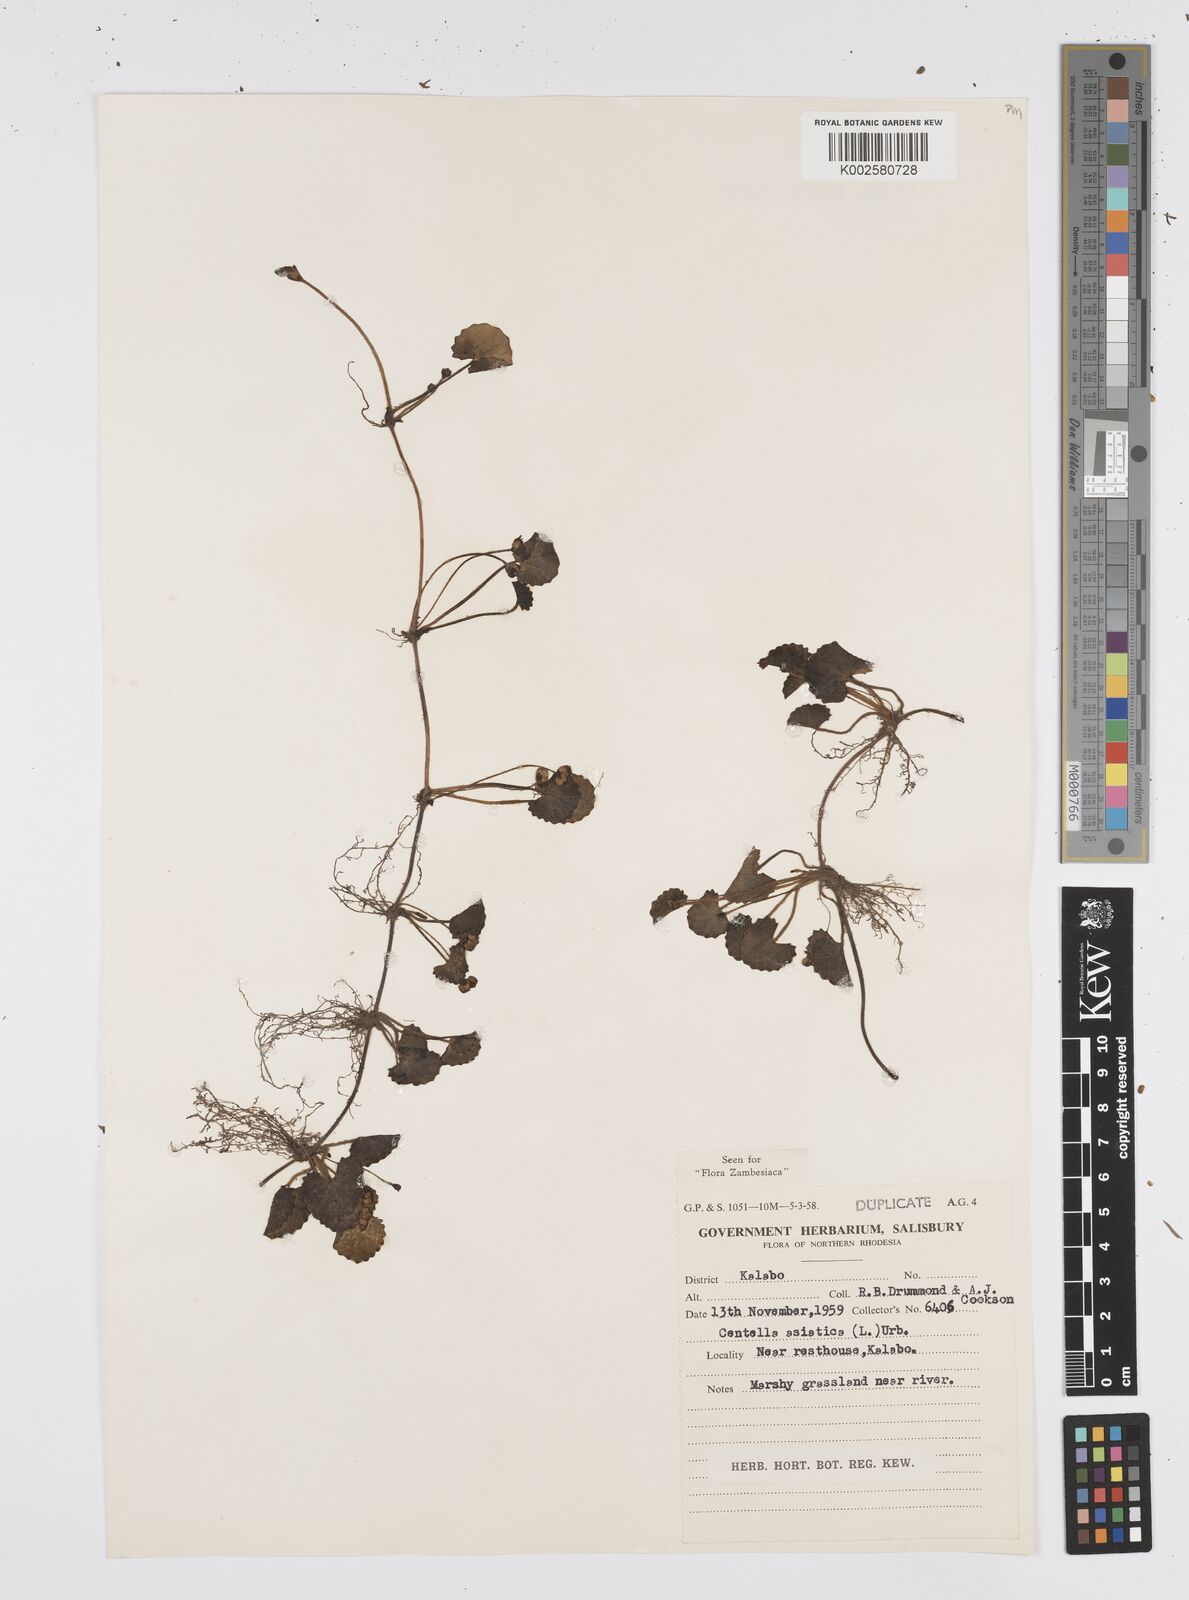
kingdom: Plantae
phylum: Tracheophyta
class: Magnoliopsida
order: Apiales
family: Apiaceae
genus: Centella
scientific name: Centella asiatica
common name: Spadeleaf
